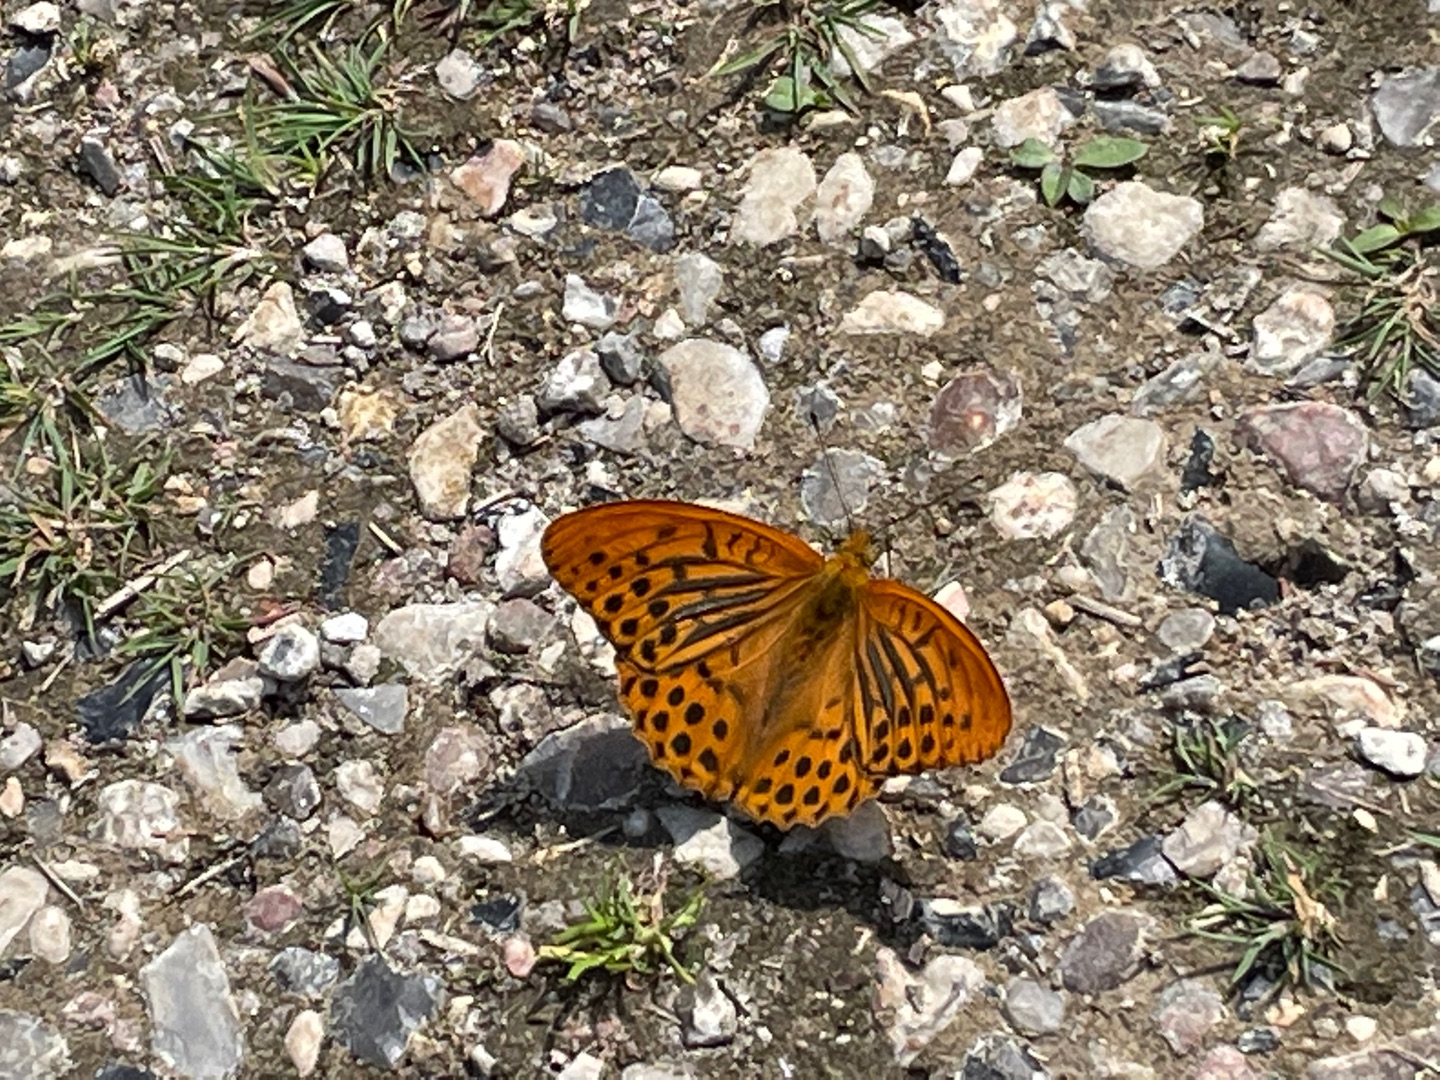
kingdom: Animalia
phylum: Arthropoda
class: Insecta
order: Lepidoptera
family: Nymphalidae
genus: Argynnis
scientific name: Argynnis paphia
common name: Kejserkåbe
